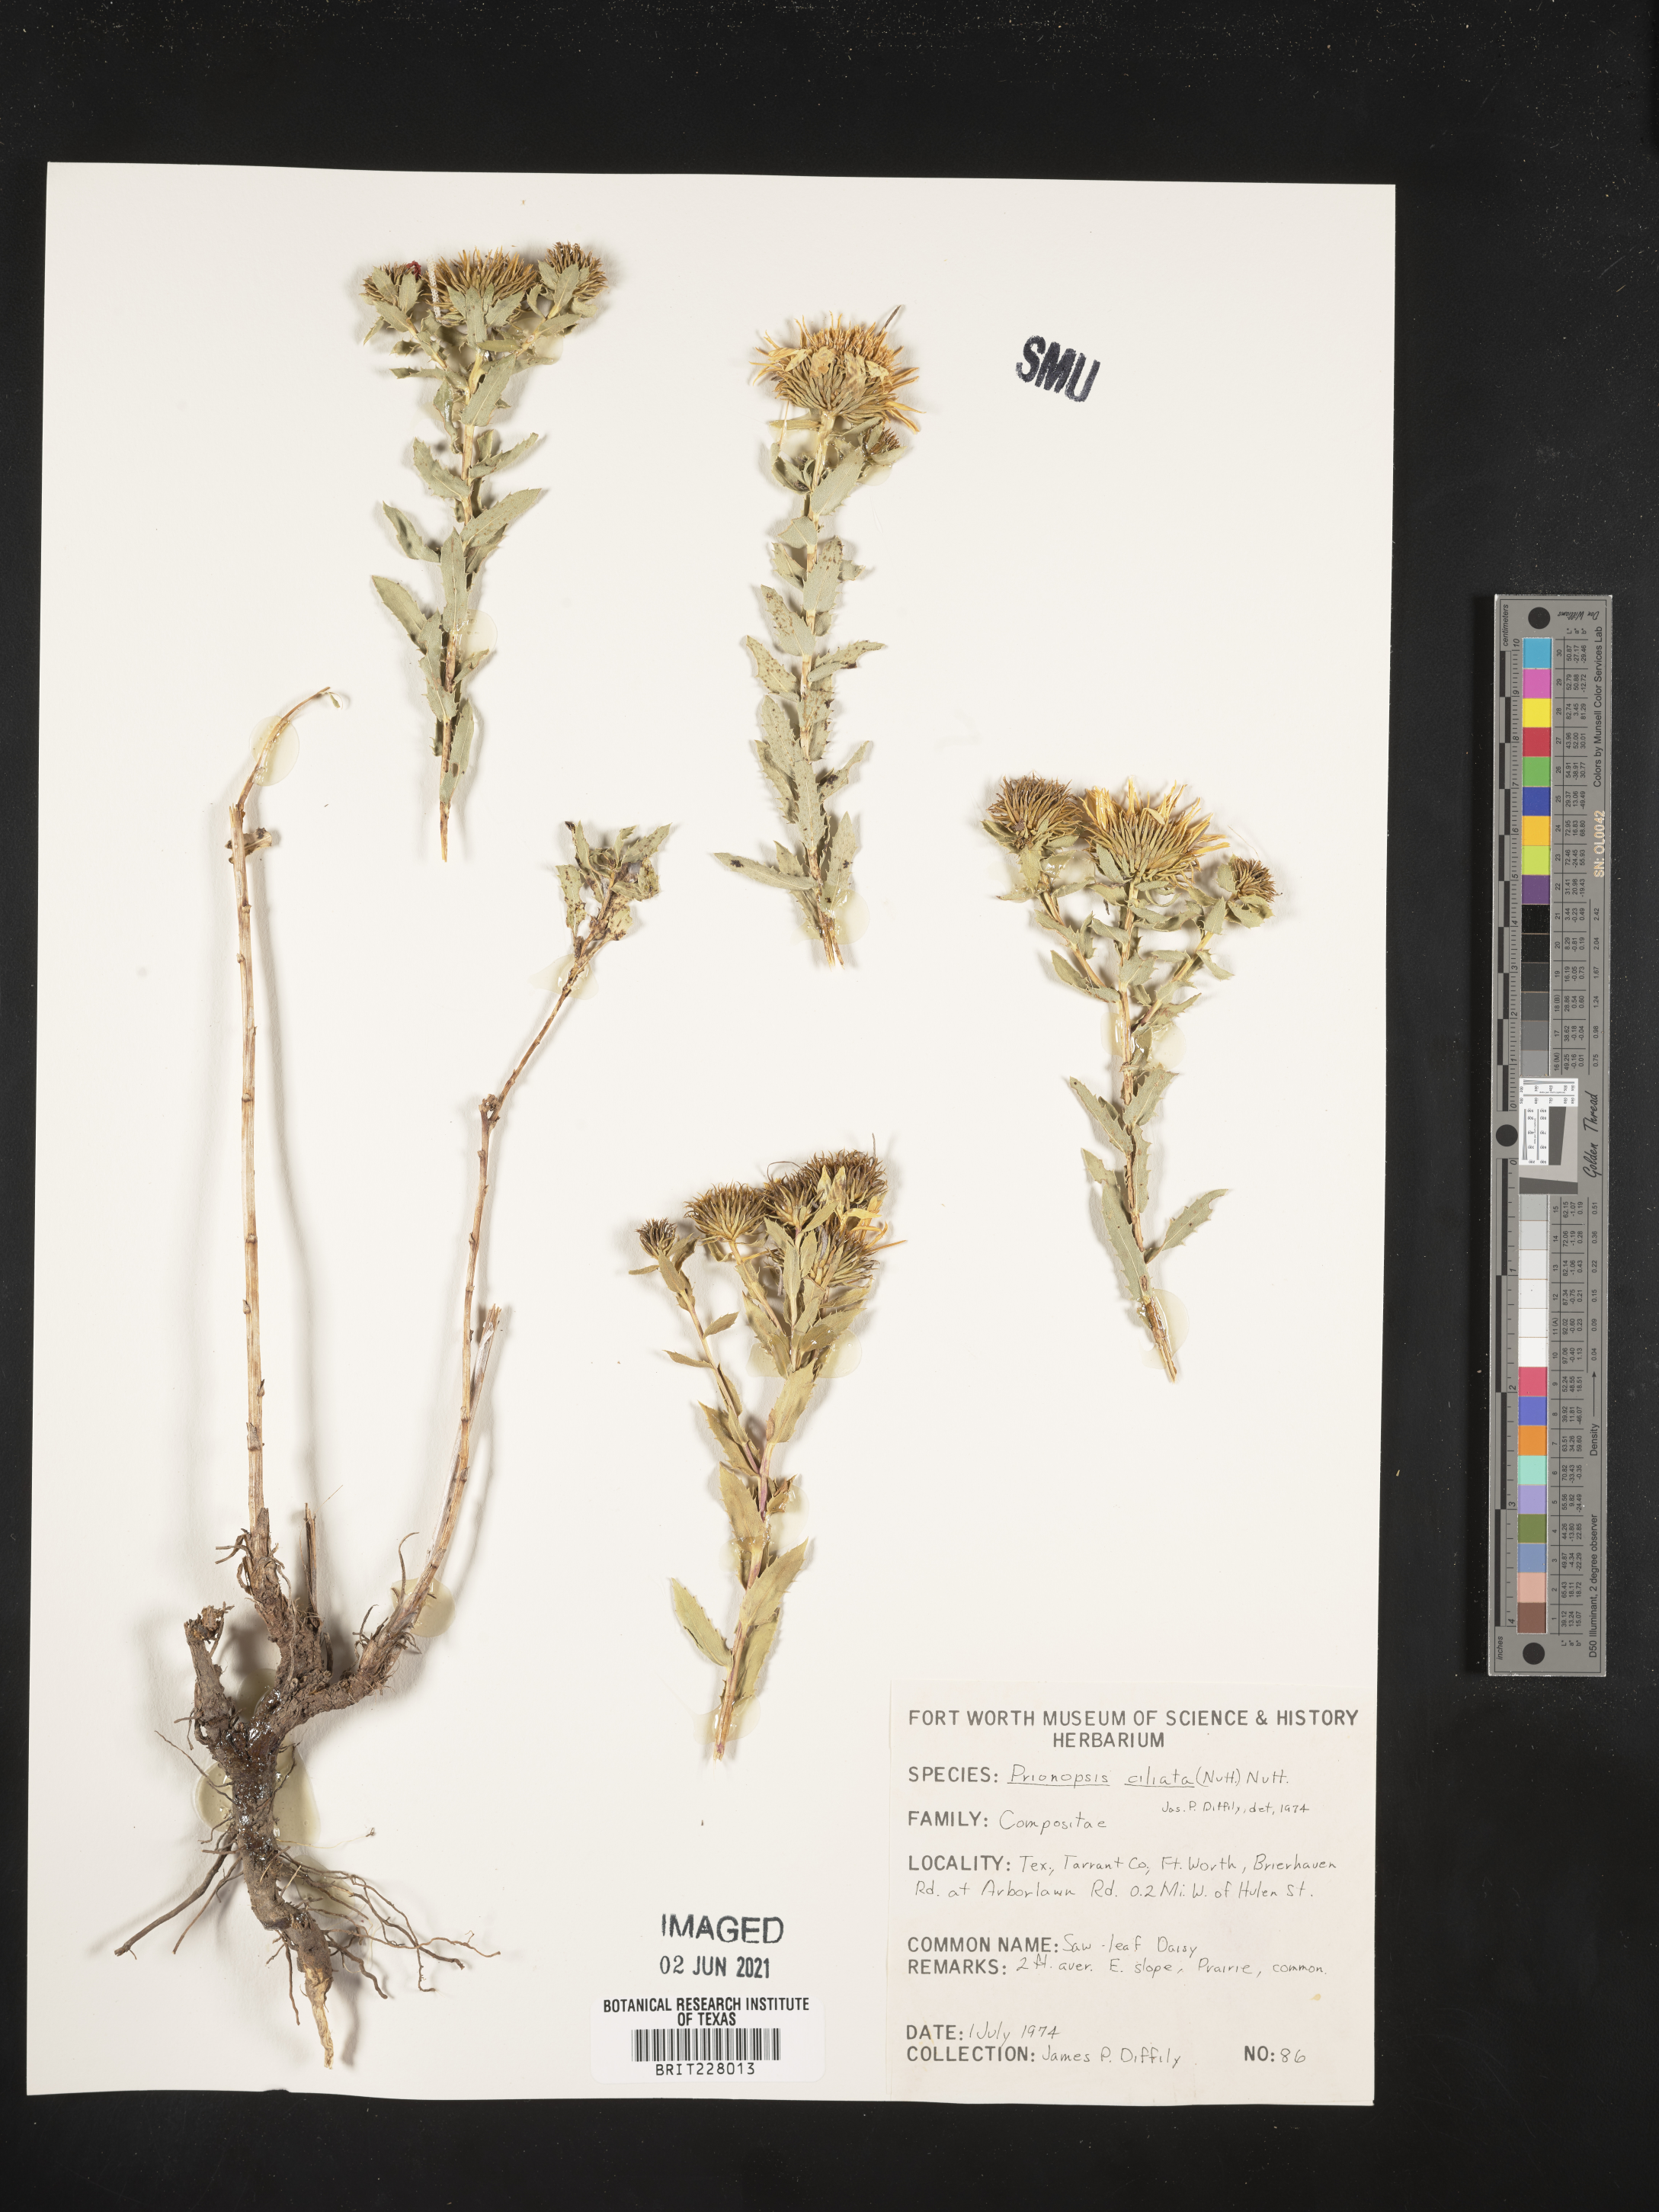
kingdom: Plantae
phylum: Tracheophyta
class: Magnoliopsida
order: Asterales
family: Asteraceae
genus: Grindelia
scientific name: Grindelia ciliata
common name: Goldenweed
